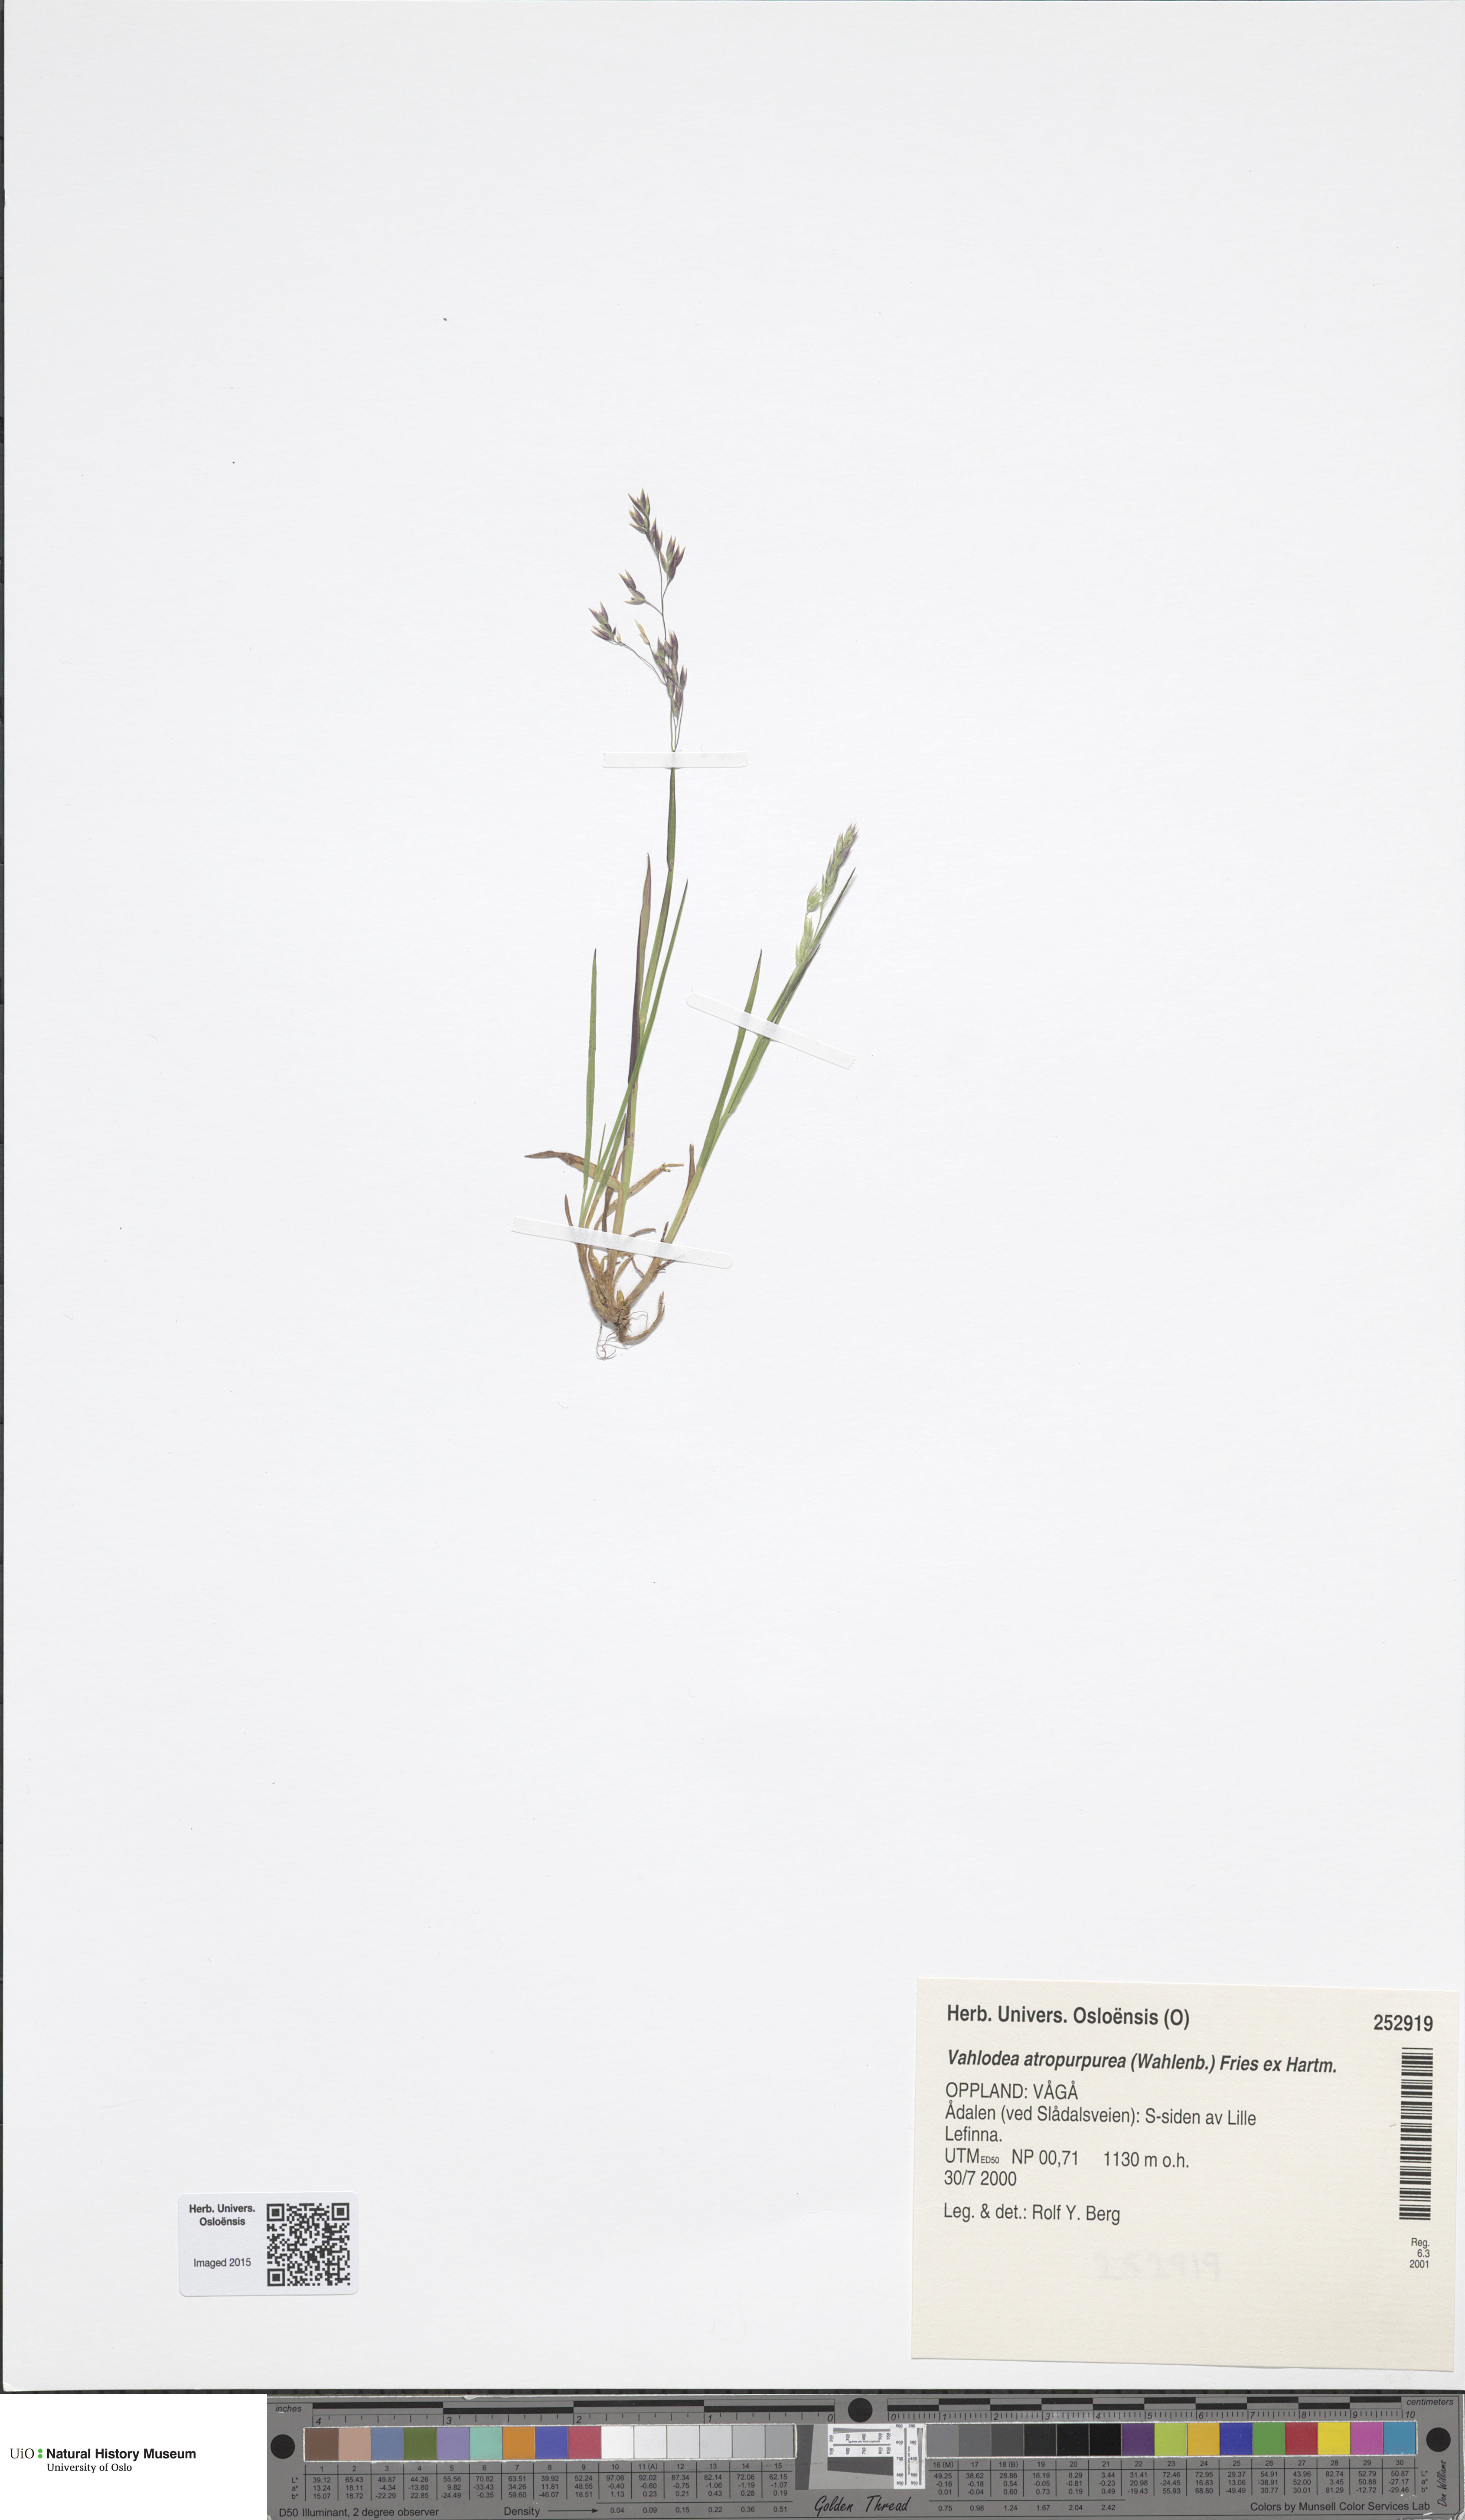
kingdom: Plantae
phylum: Tracheophyta
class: Liliopsida
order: Poales
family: Poaceae
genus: Vahlodea
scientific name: Vahlodea atropurpurea
